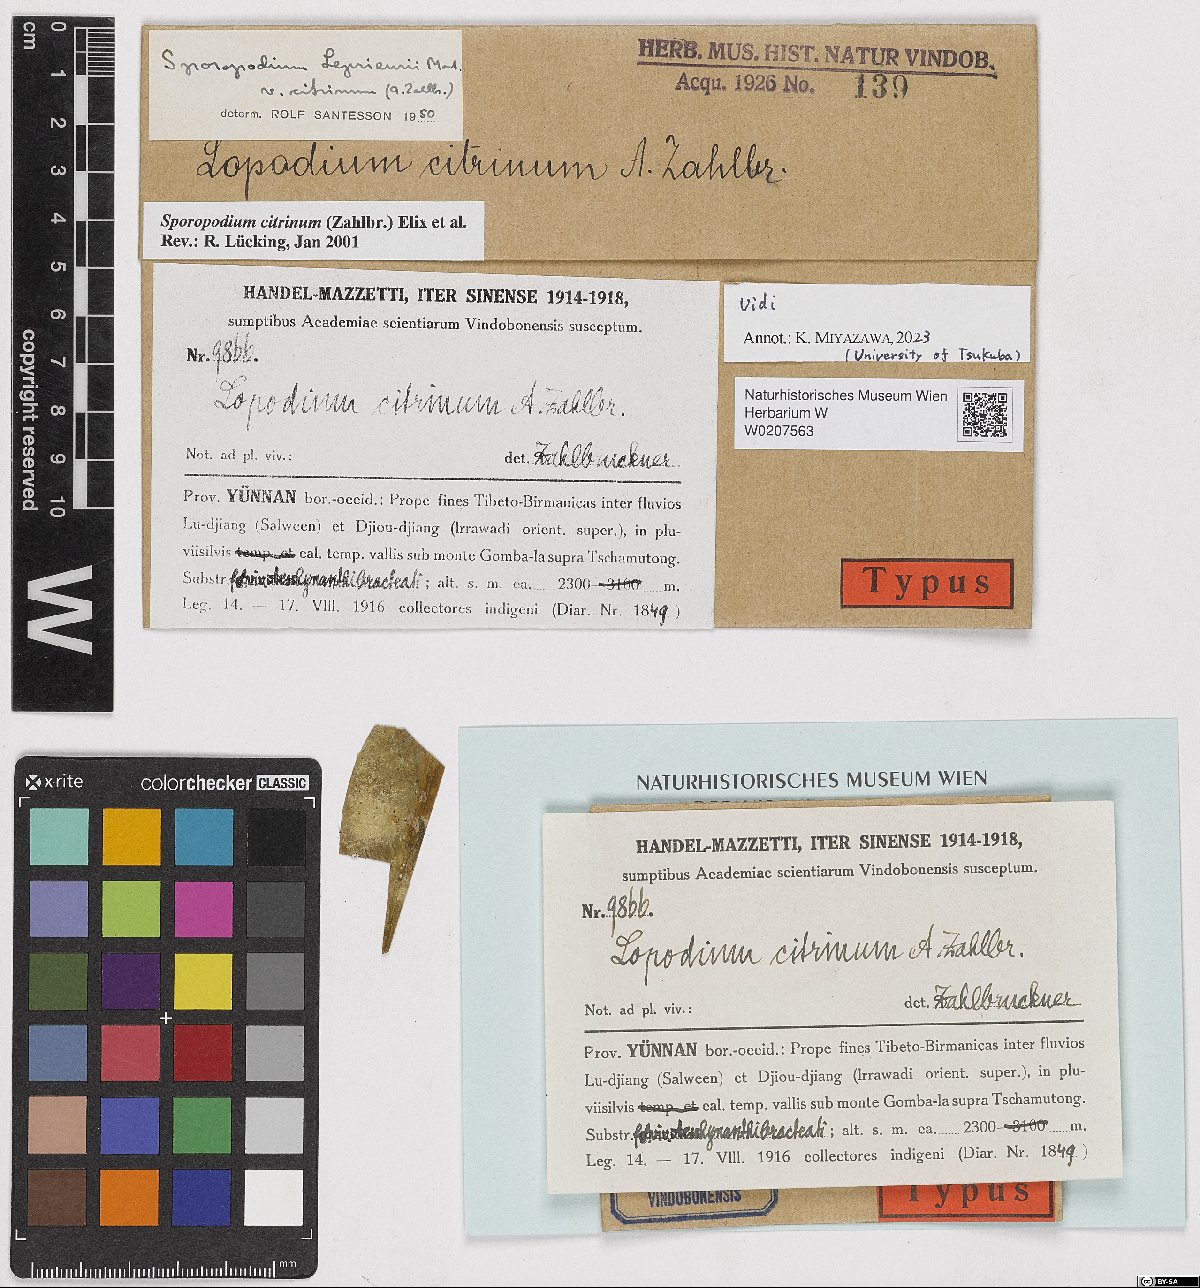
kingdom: Fungi
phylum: Ascomycota
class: Lecanoromycetes
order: Lecanorales
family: Byssolomataceae
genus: Sporopodium
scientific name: Sporopodium citrinum
